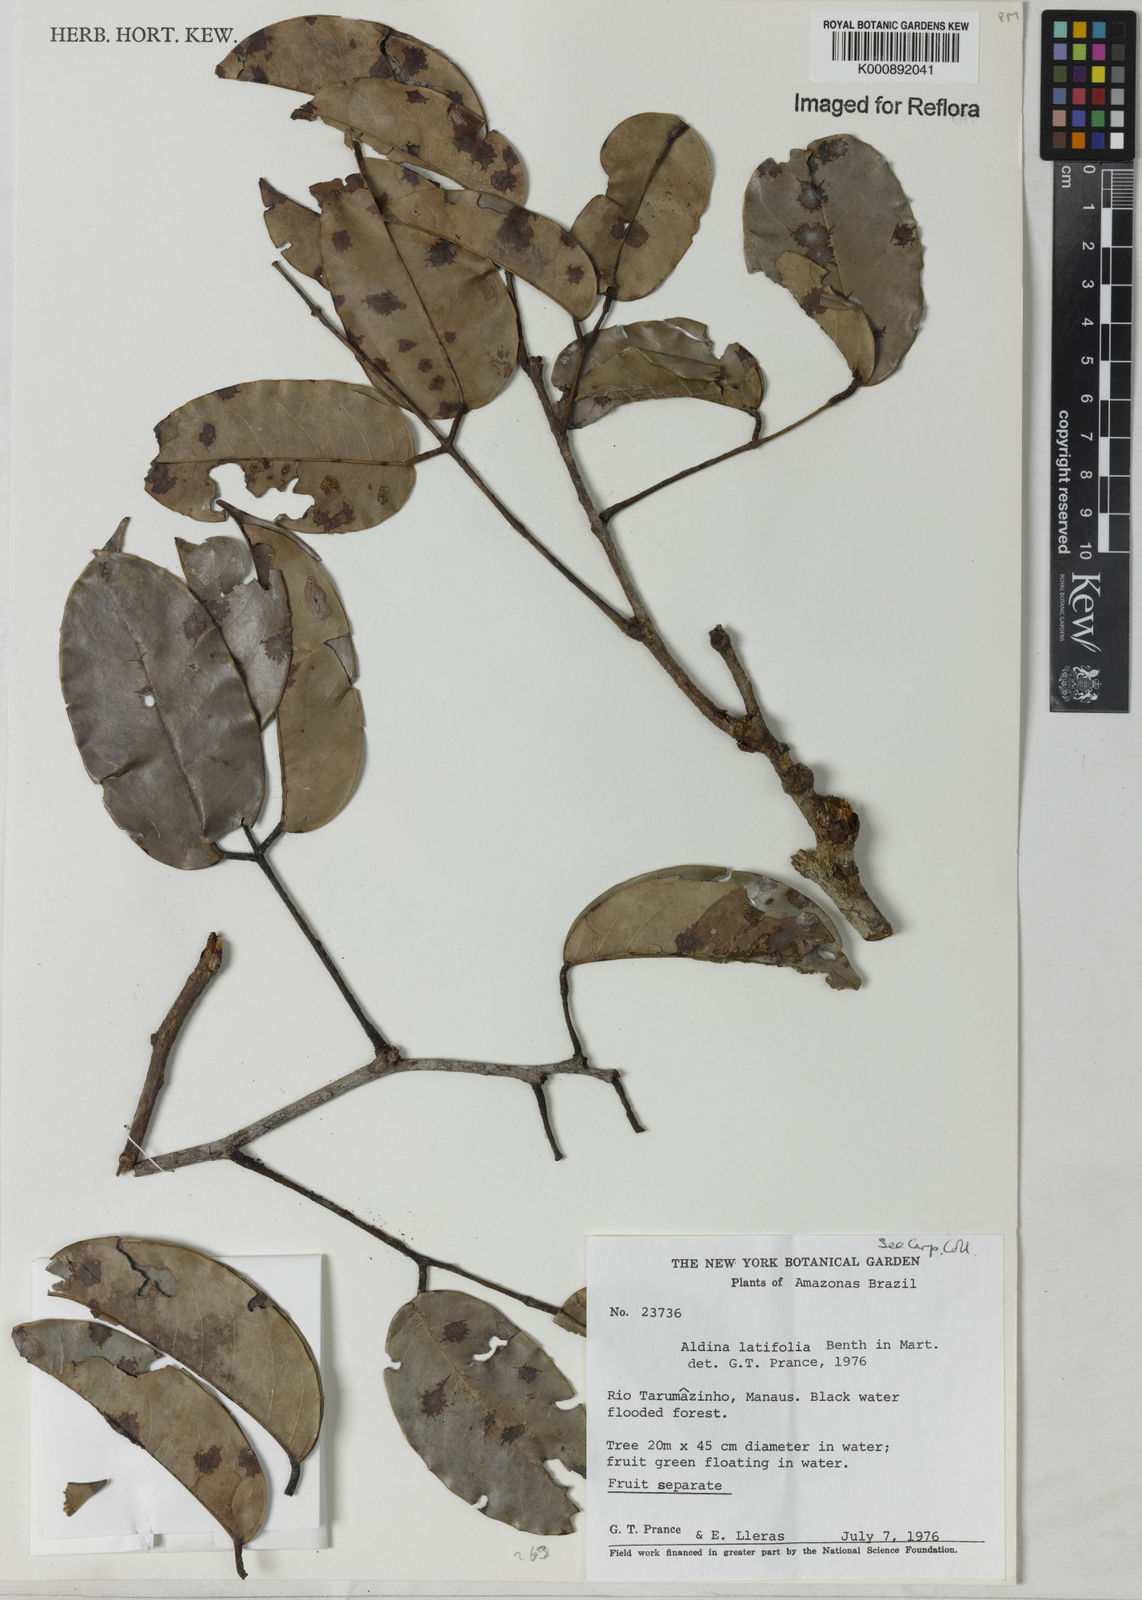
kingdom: Plantae
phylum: Tracheophyta
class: Magnoliopsida
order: Fabales
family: Fabaceae
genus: Aldina
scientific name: Aldina latifolia
